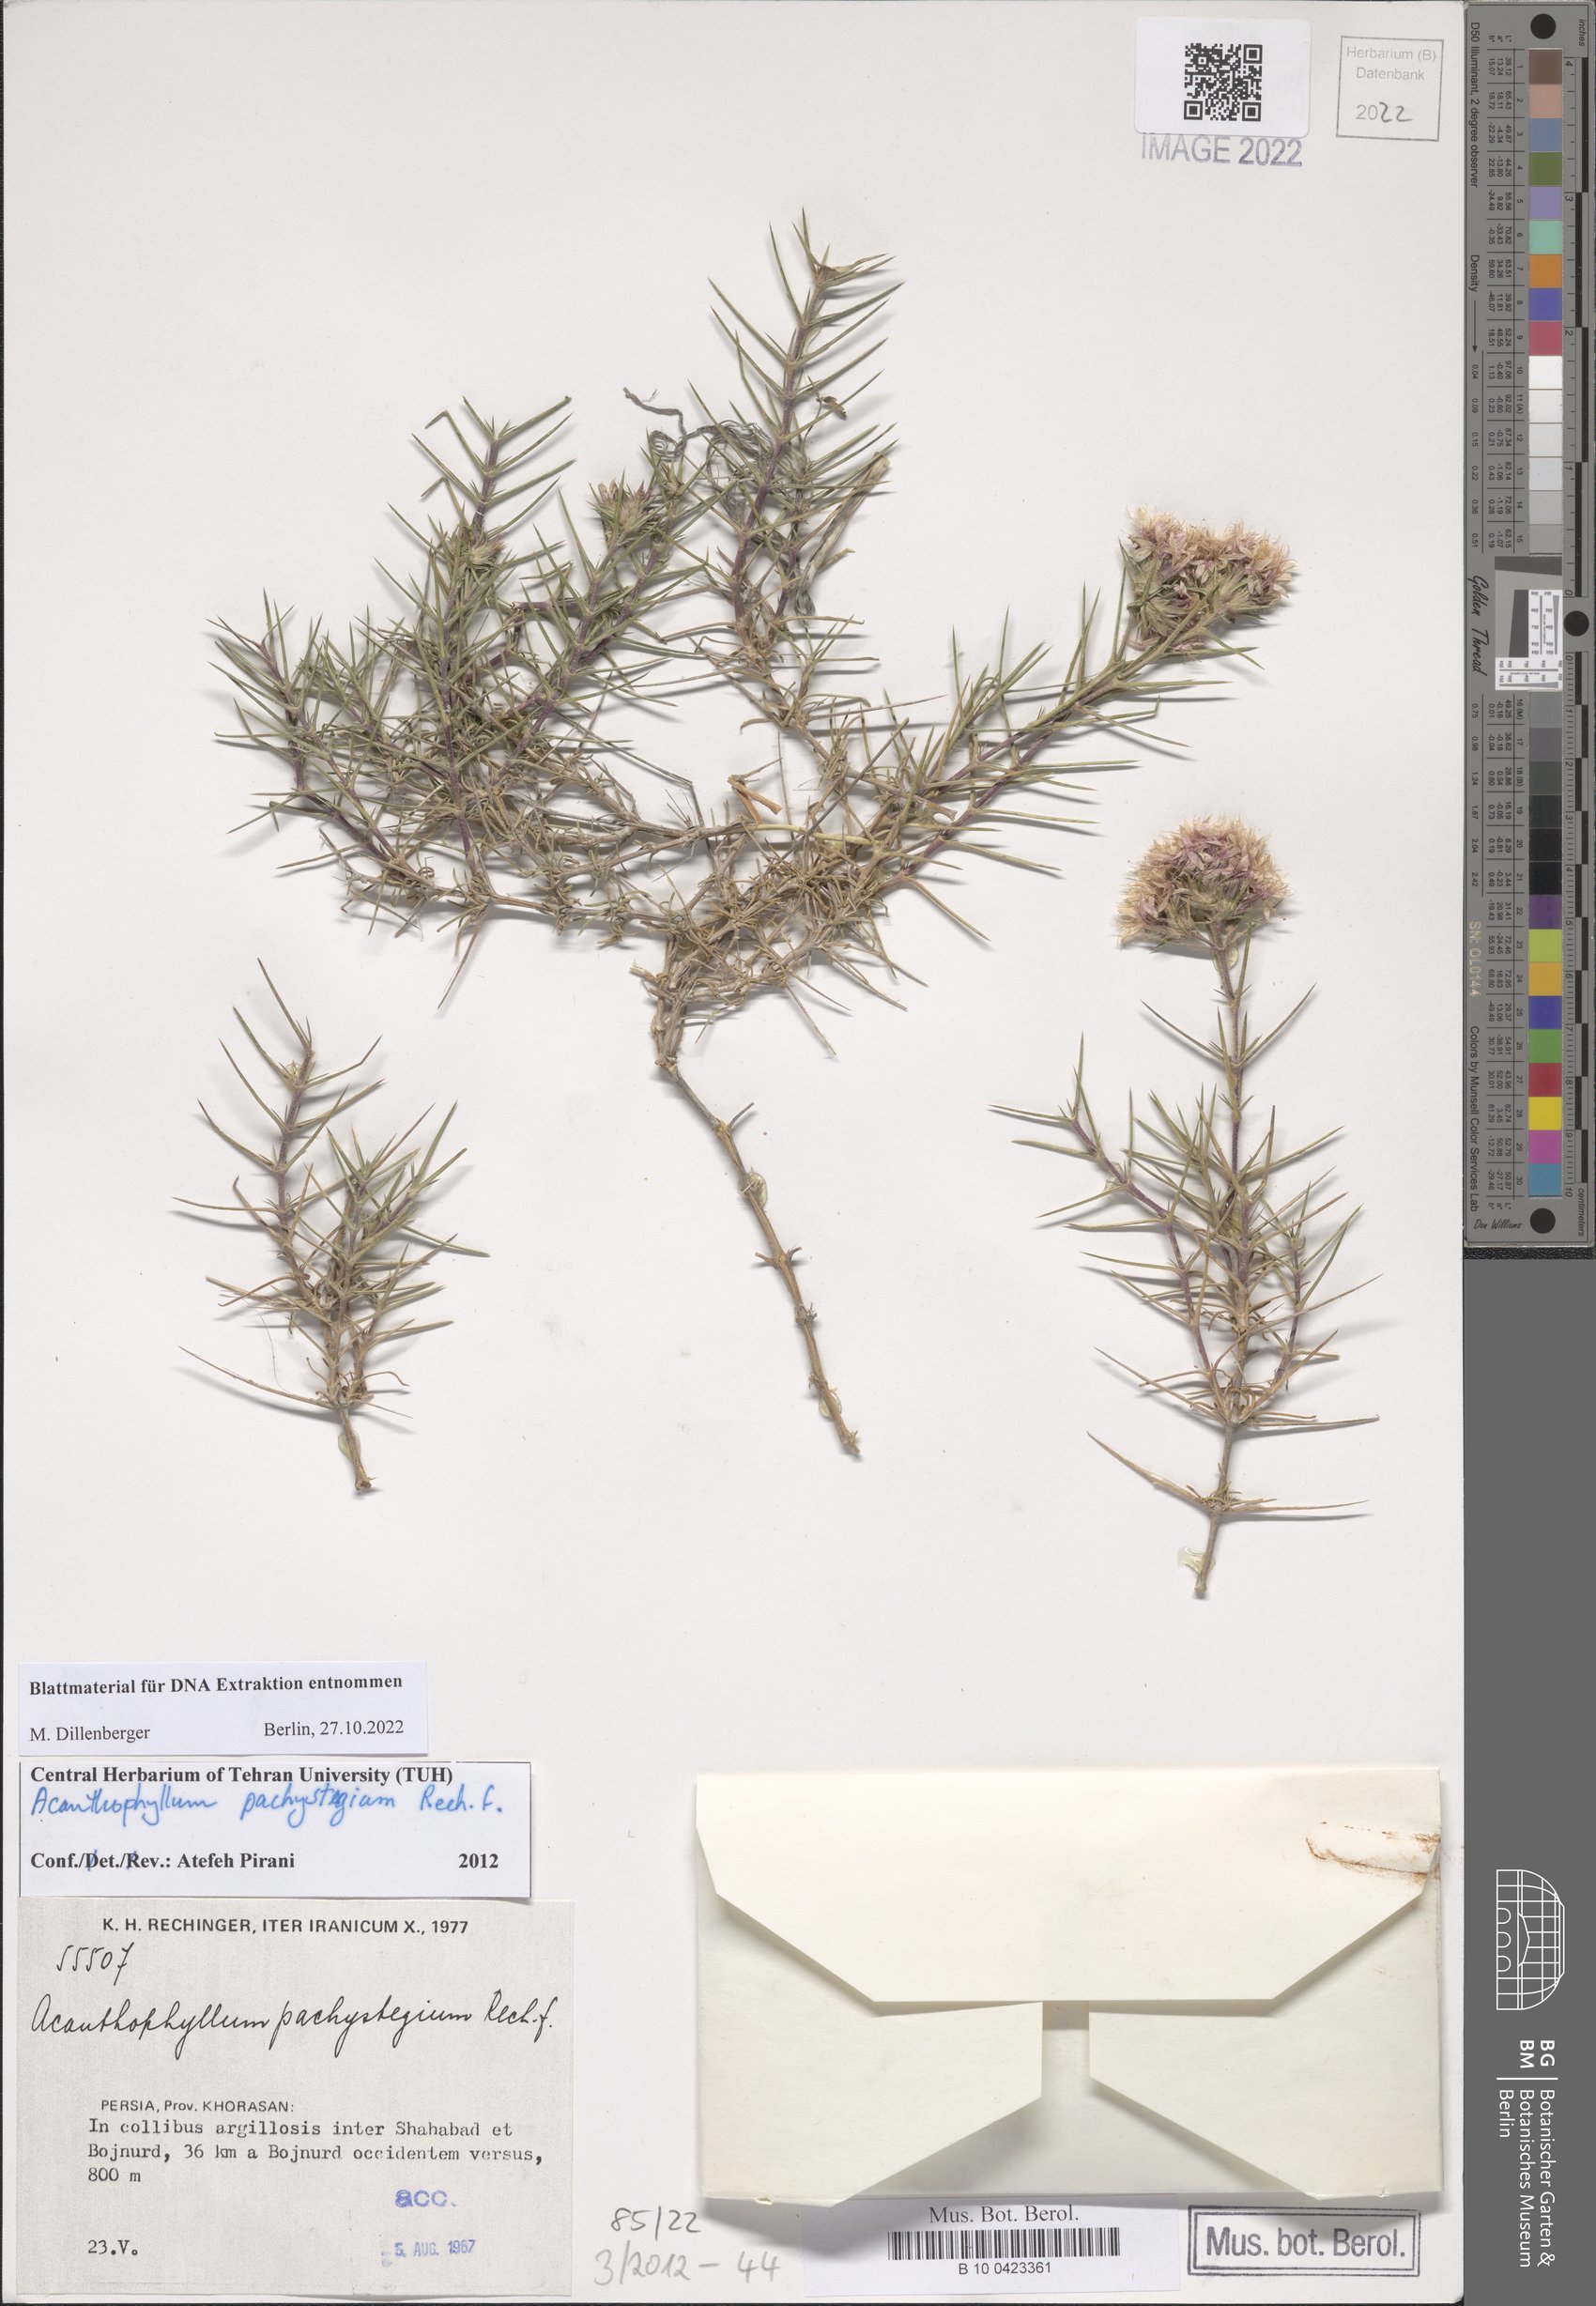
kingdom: Plantae
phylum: Tracheophyta
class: Magnoliopsida
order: Caryophyllales
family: Caryophyllaceae
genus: Acanthophyllum
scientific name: Acanthophyllum pachystegium
